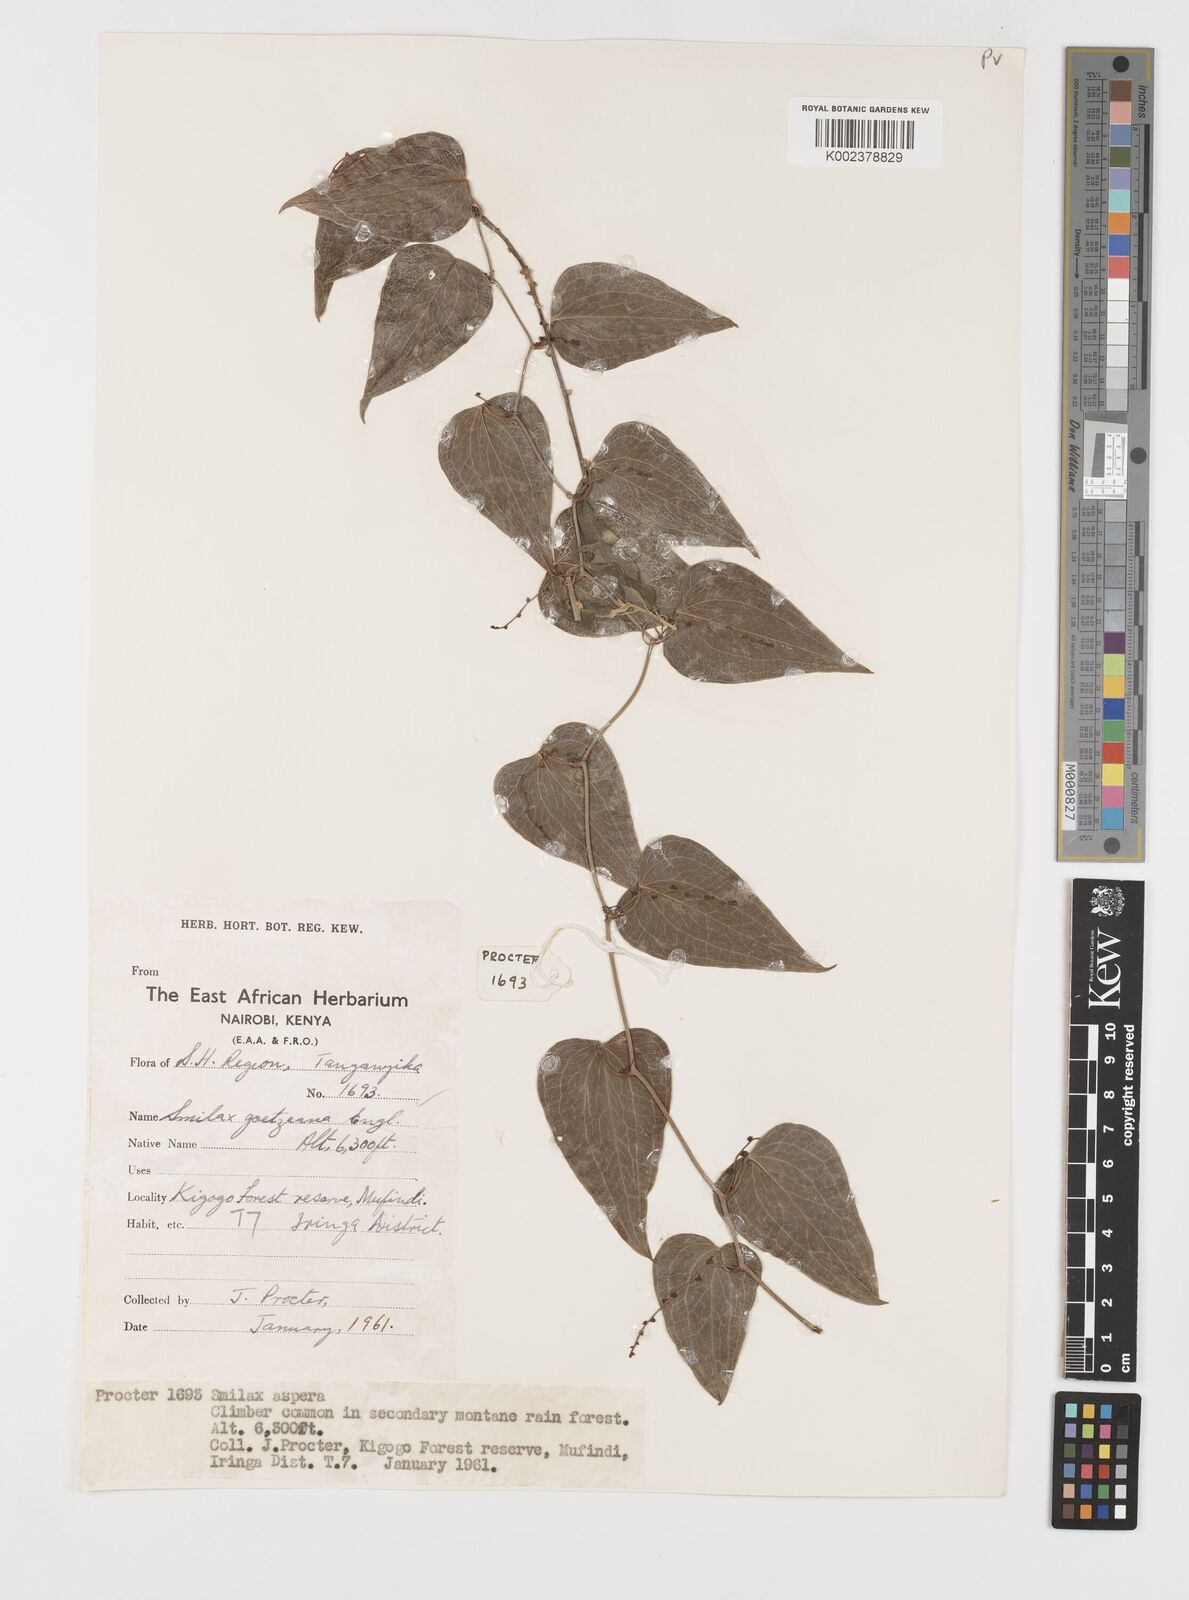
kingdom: Plantae
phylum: Tracheophyta
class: Liliopsida
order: Liliales
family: Smilacaceae
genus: Smilax
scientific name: Smilax aspera
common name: Common smilax
